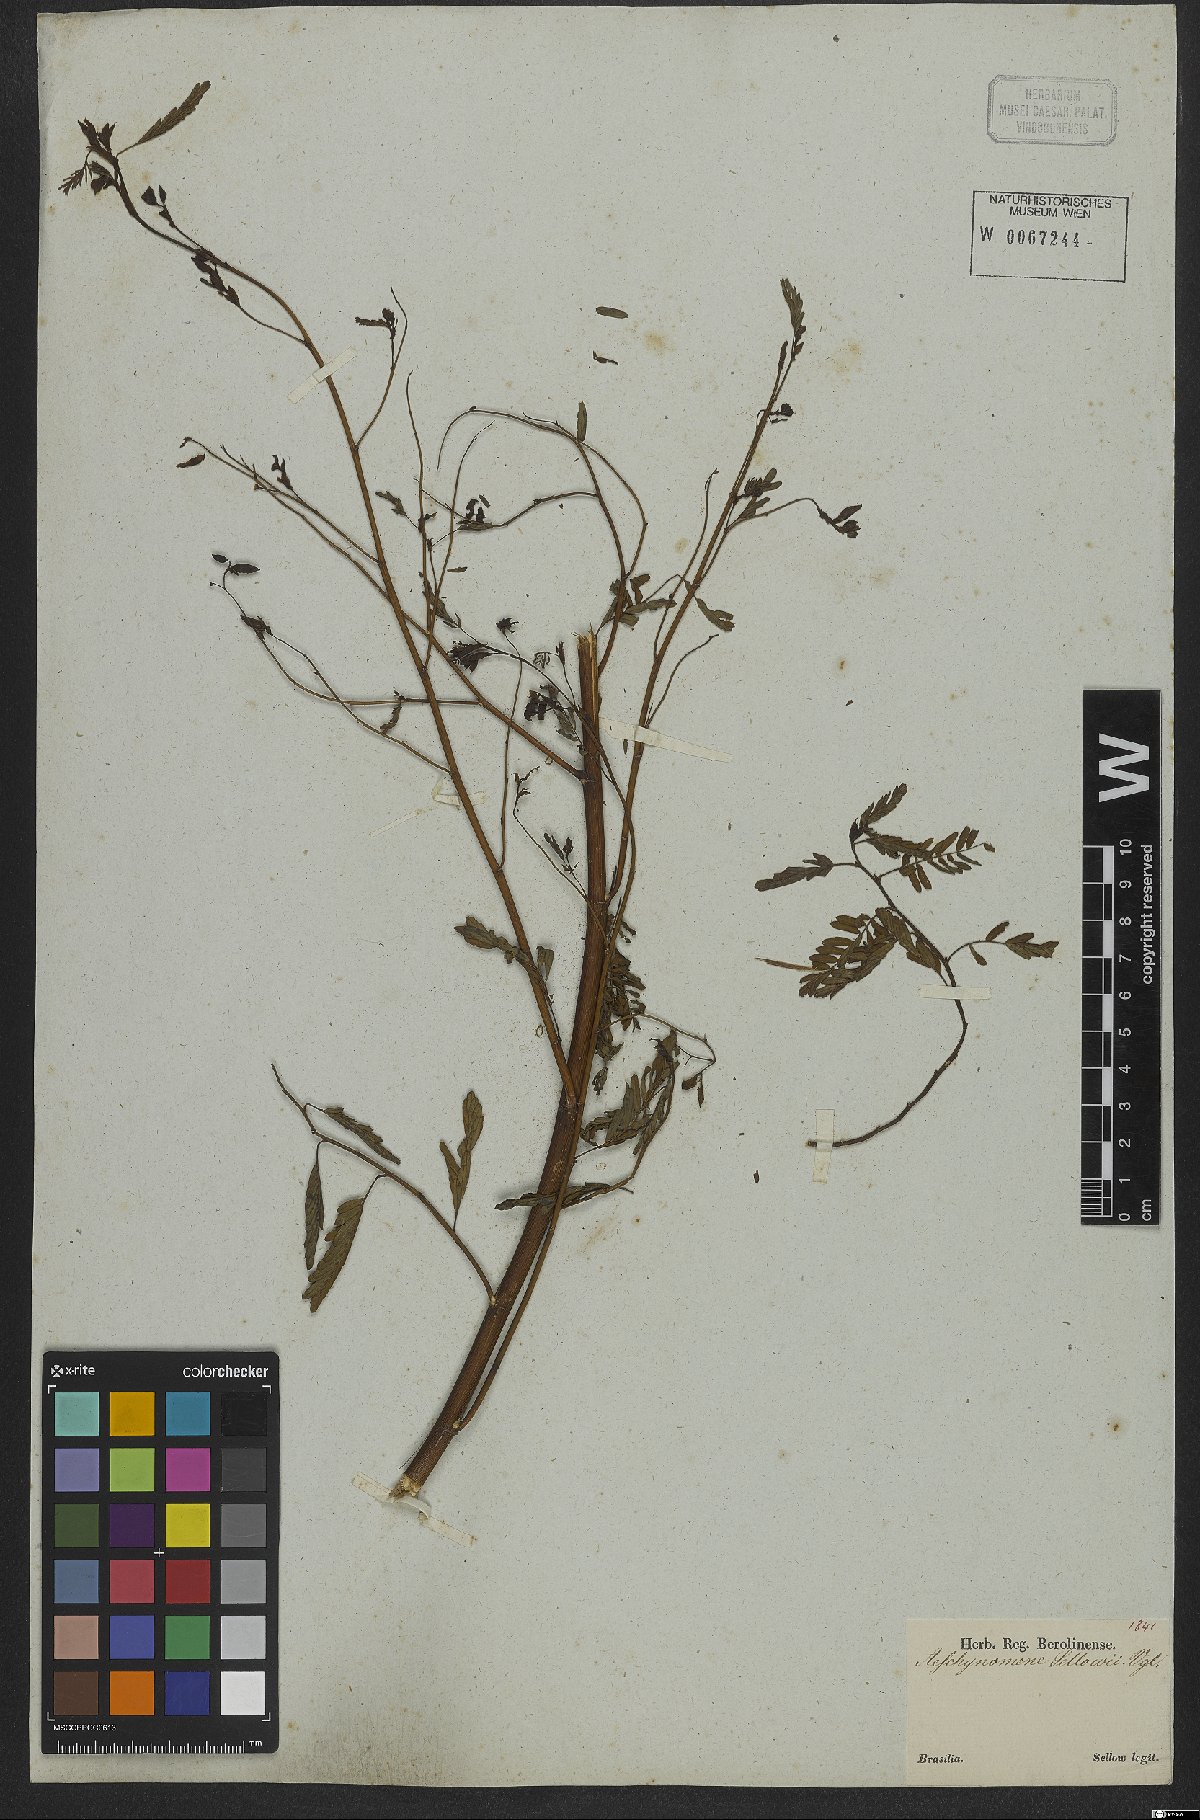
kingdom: Plantae
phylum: Tracheophyta
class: Magnoliopsida
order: Fabales
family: Fabaceae
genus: Aeschynomene
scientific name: Aeschynomene selloi
